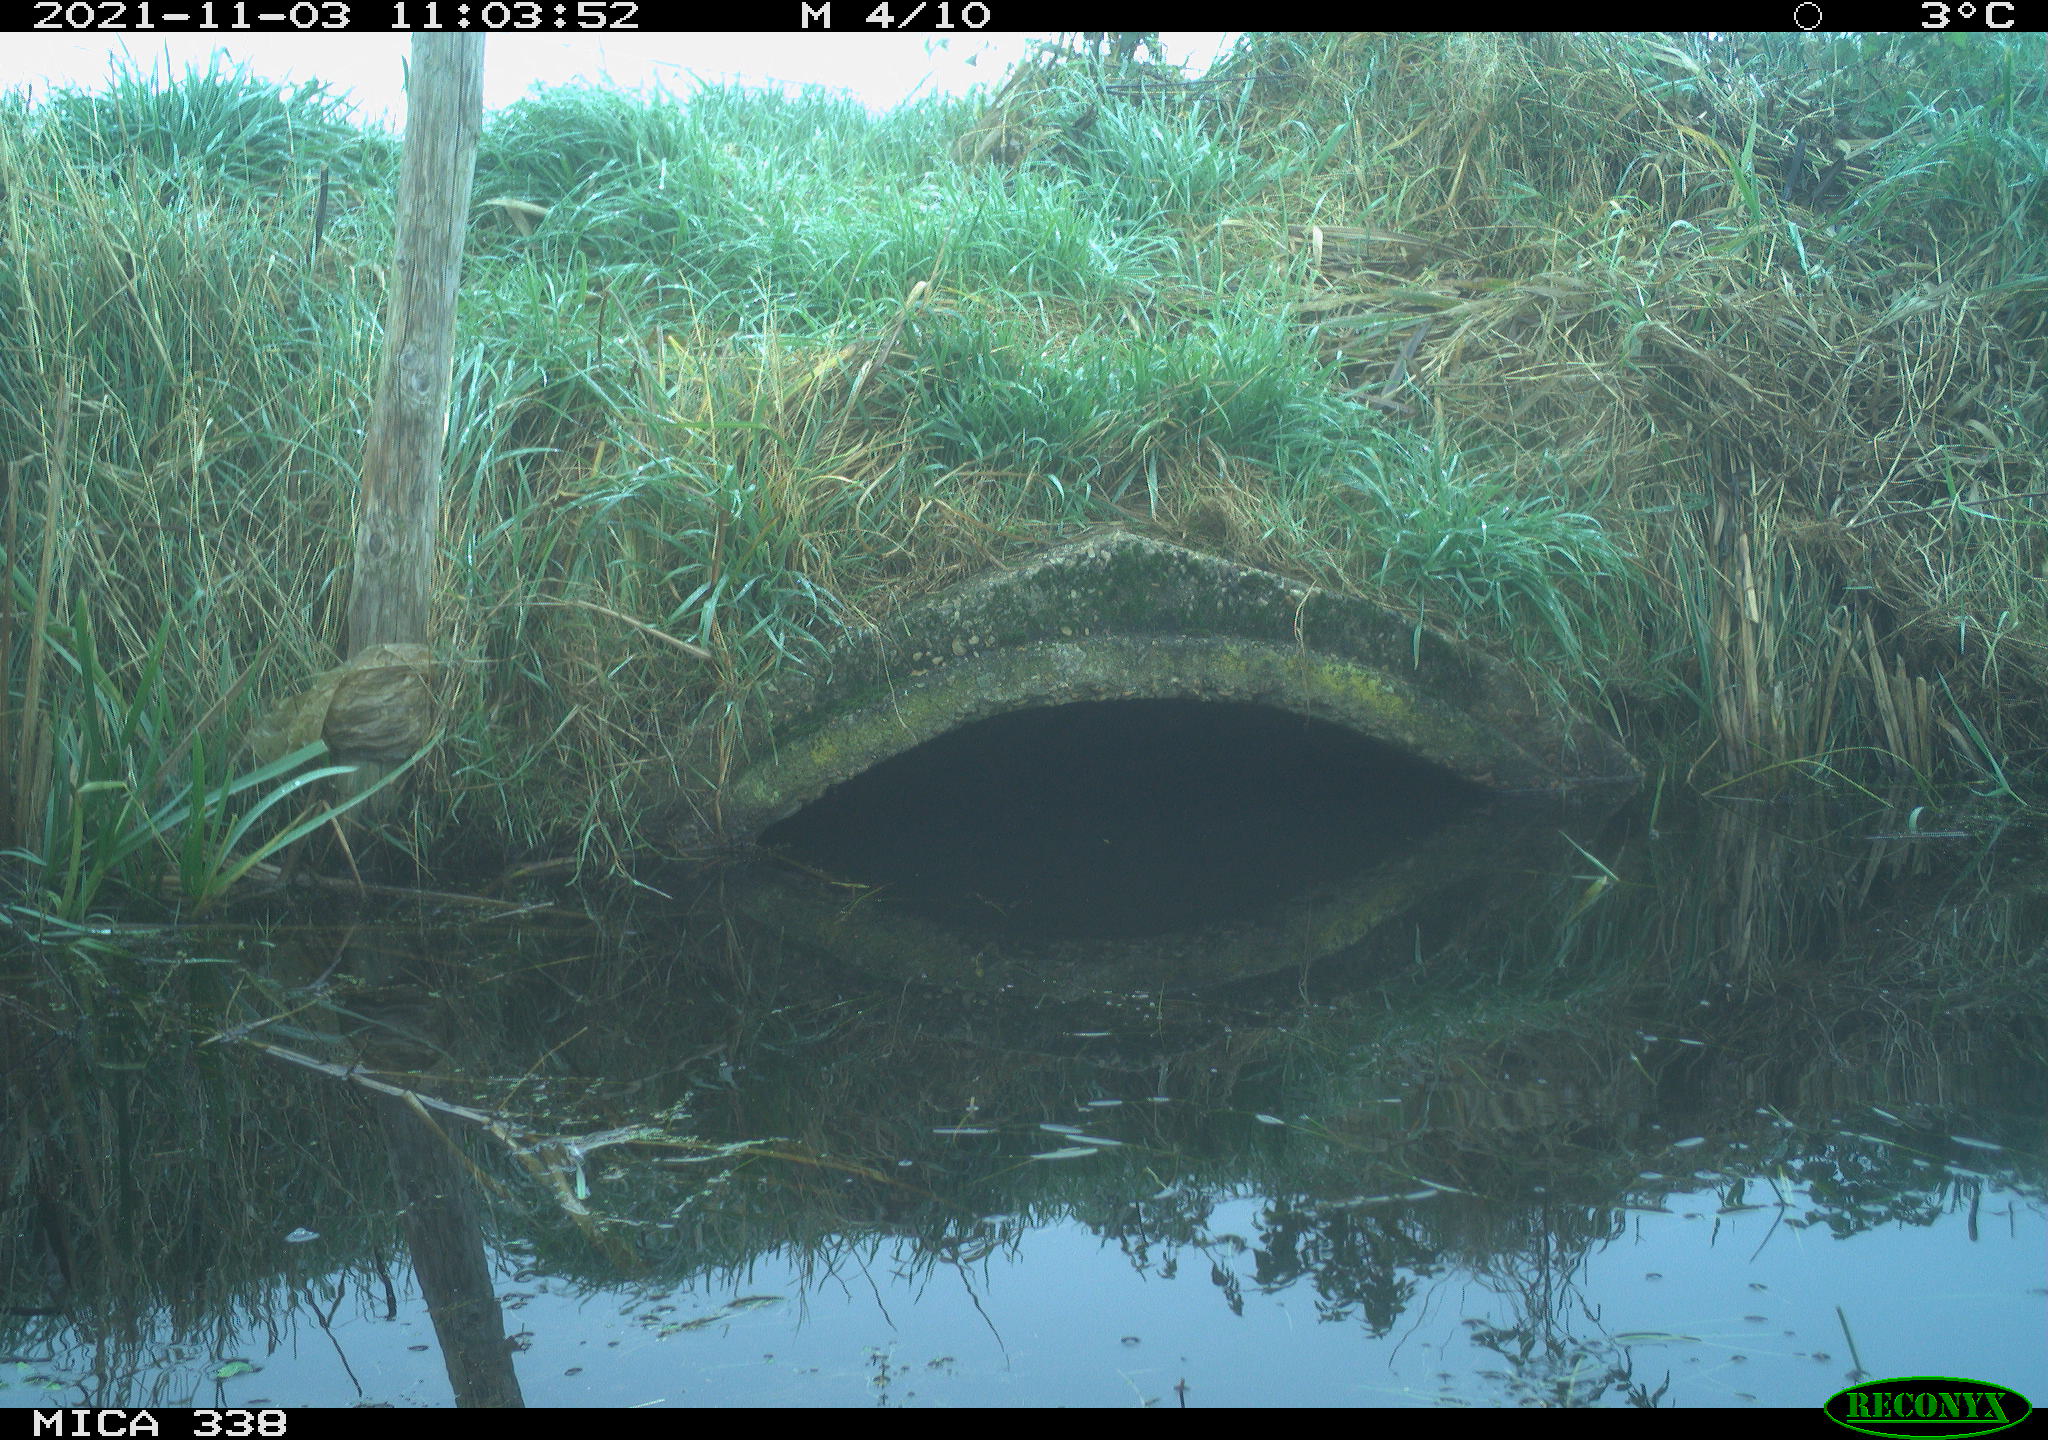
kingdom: Animalia
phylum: Chordata
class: Aves
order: Anseriformes
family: Anatidae
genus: Cygnus
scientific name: Cygnus olor
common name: Mute swan
